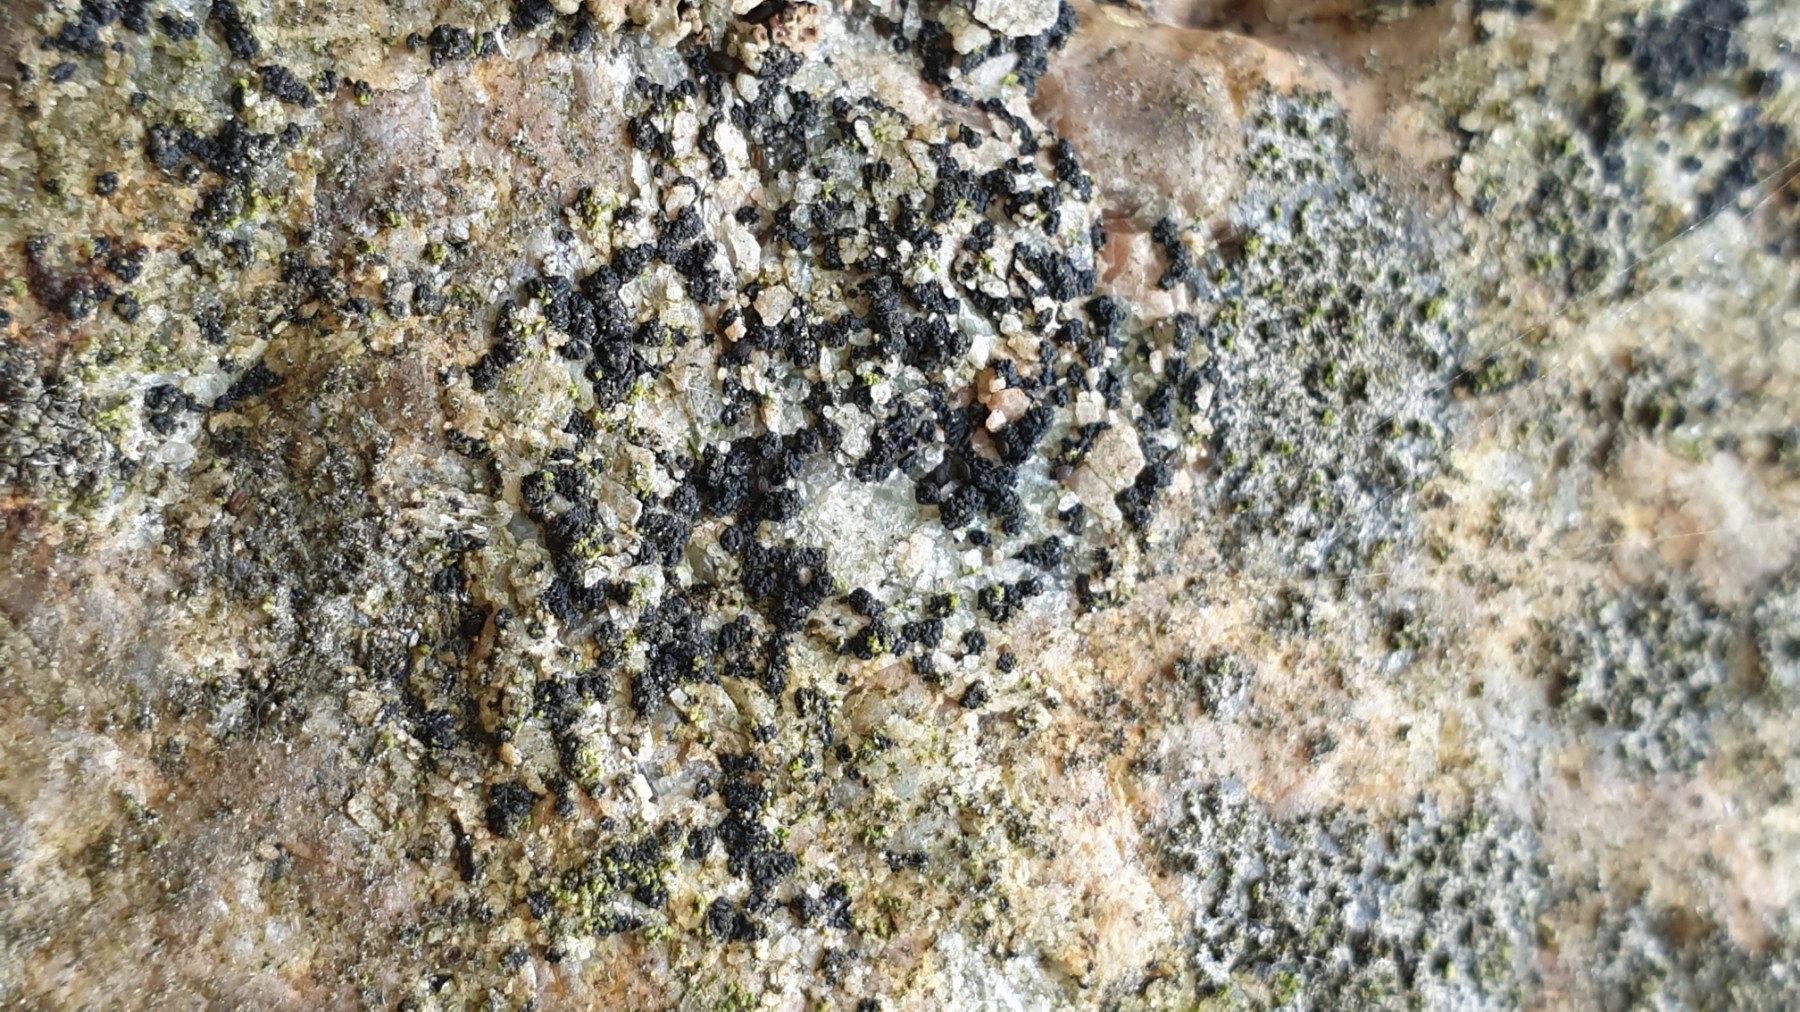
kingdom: Fungi
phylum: Ascomycota
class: Lecanoromycetes
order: Acarosporales
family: Acarosporaceae
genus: Acarospora
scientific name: Acarospora privigna
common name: sort foldekantlav
